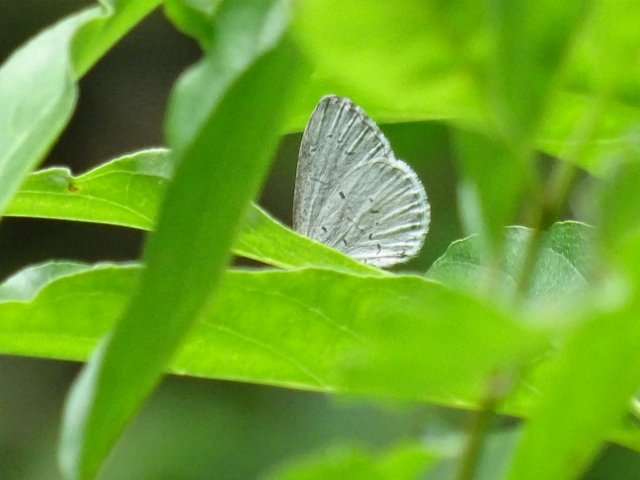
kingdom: Animalia
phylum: Arthropoda
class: Insecta
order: Lepidoptera
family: Lycaenidae
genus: Cyaniris
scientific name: Cyaniris neglecta
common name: Summer Azure
